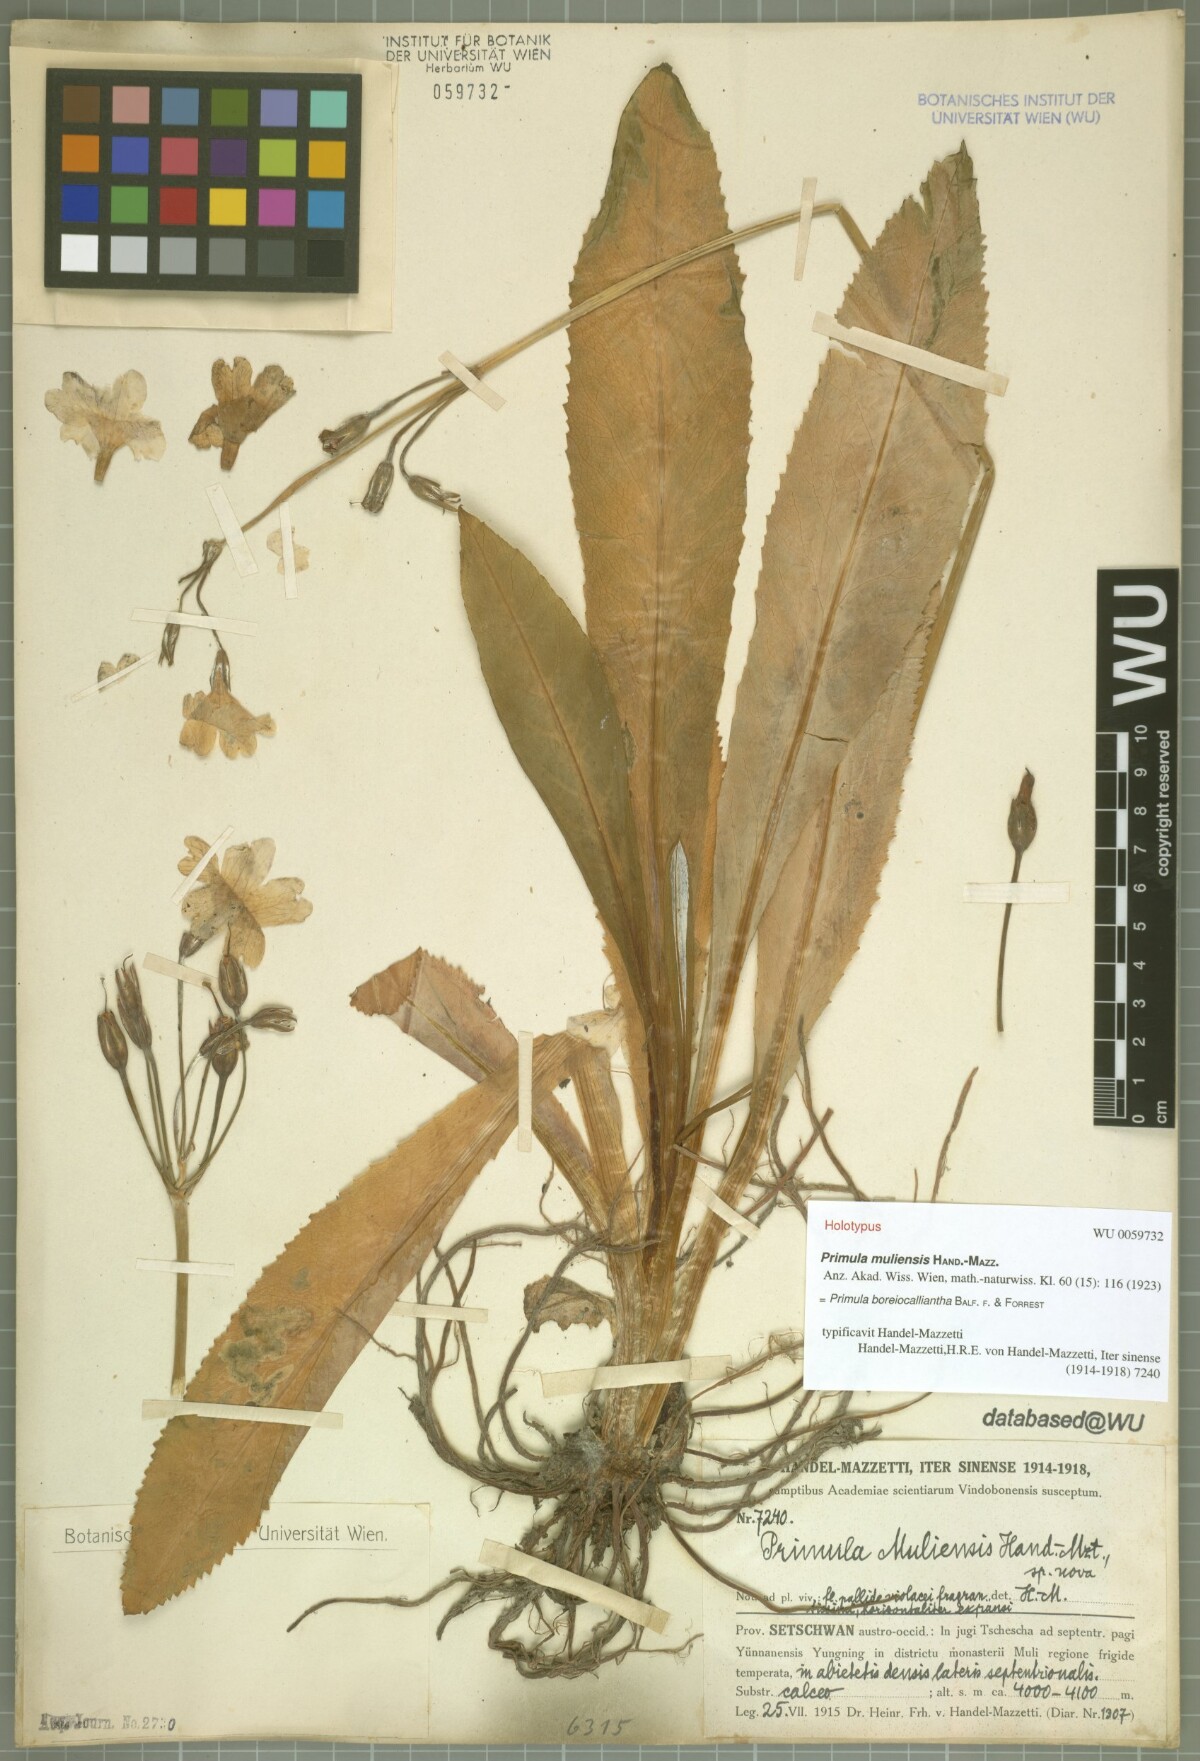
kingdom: Plantae
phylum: Tracheophyta
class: Magnoliopsida
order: Ericales
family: Primulaceae
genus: Primula
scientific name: Primula boreiocalliantha
